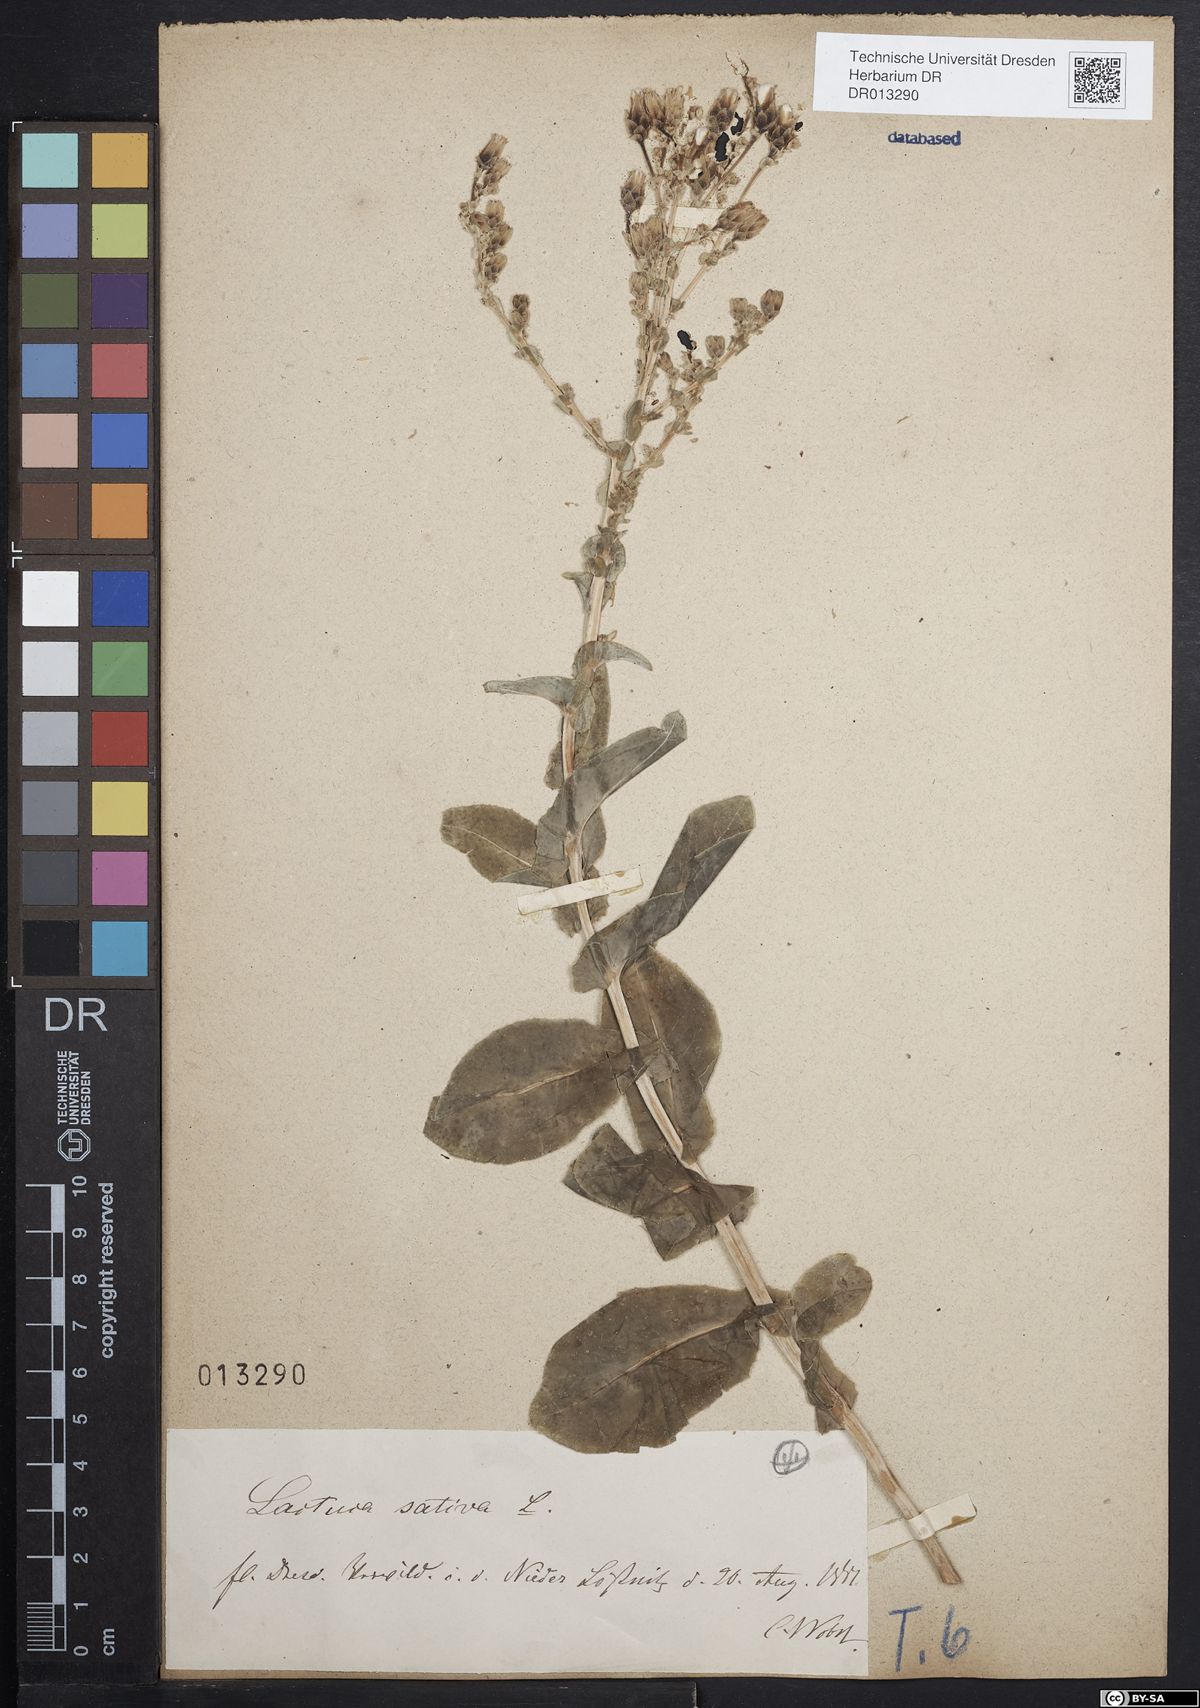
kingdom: Plantae
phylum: Tracheophyta
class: Magnoliopsida
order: Asterales
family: Asteraceae
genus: Lactuca
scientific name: Lactuca sativa
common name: Garden lettuce
